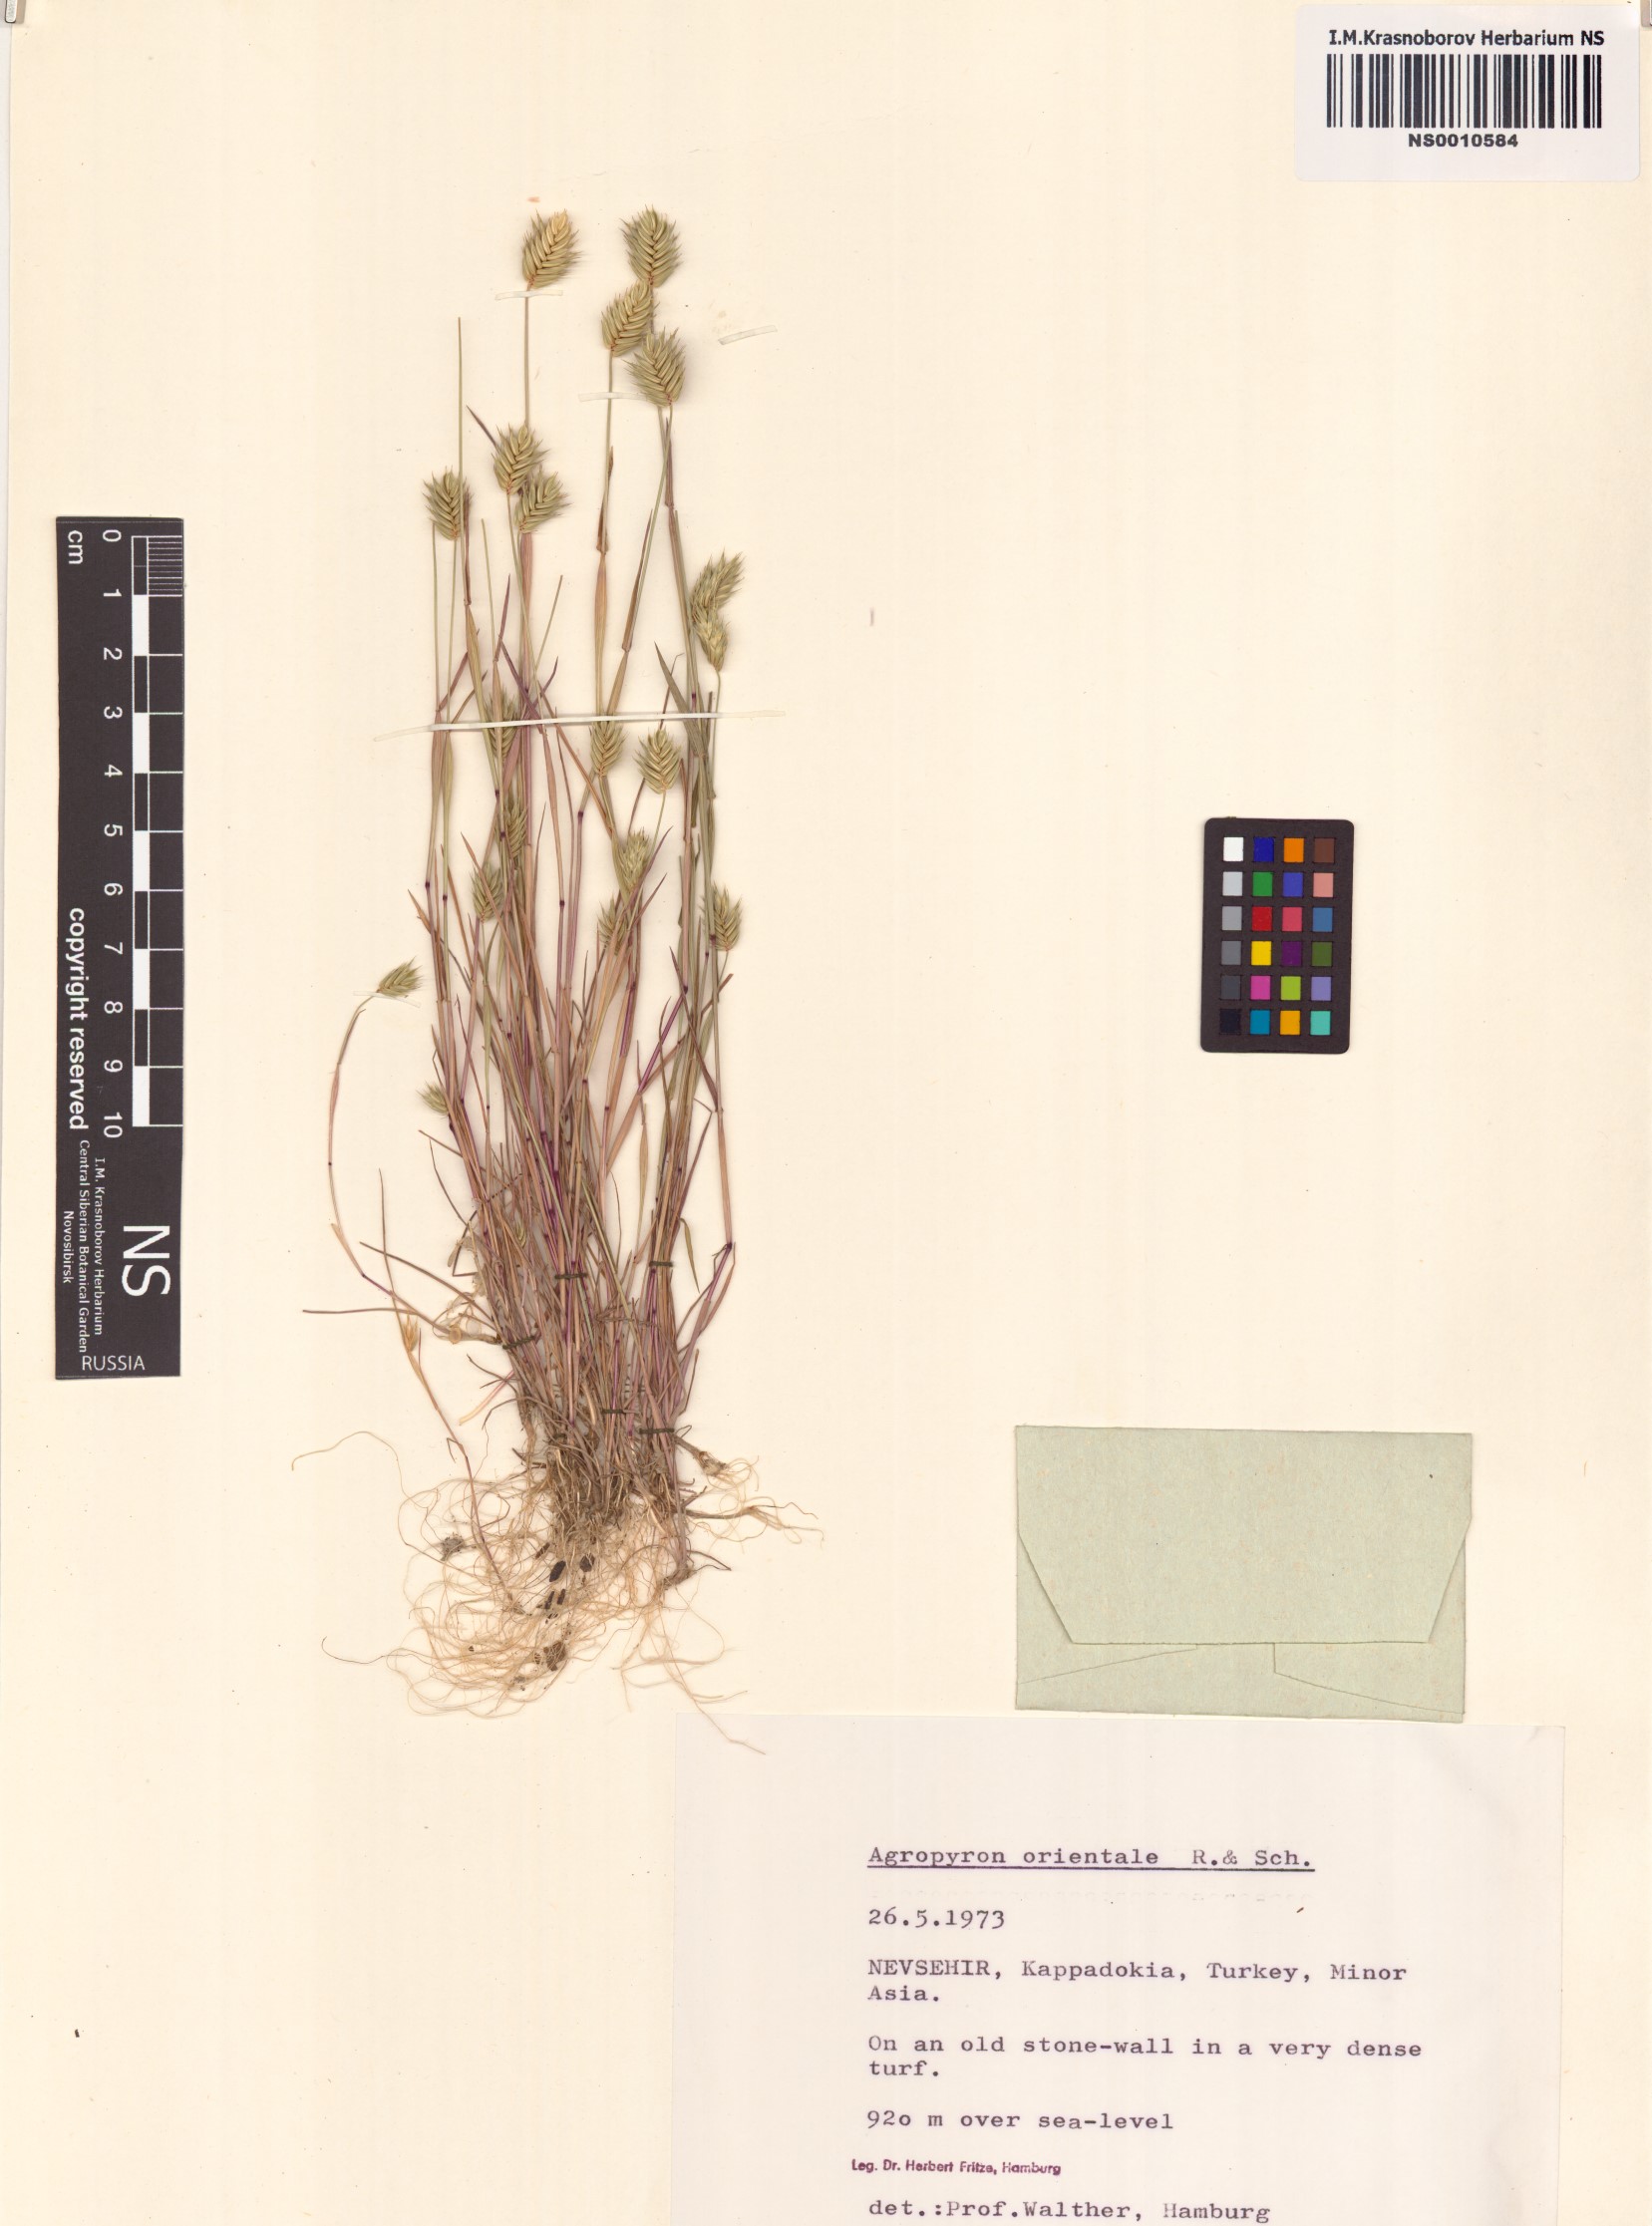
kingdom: Plantae
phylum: Tracheophyta
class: Liliopsida
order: Poales
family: Poaceae
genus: Eremopyrum
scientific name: Eremopyrum orientale
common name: Oriental false wheatgrass
